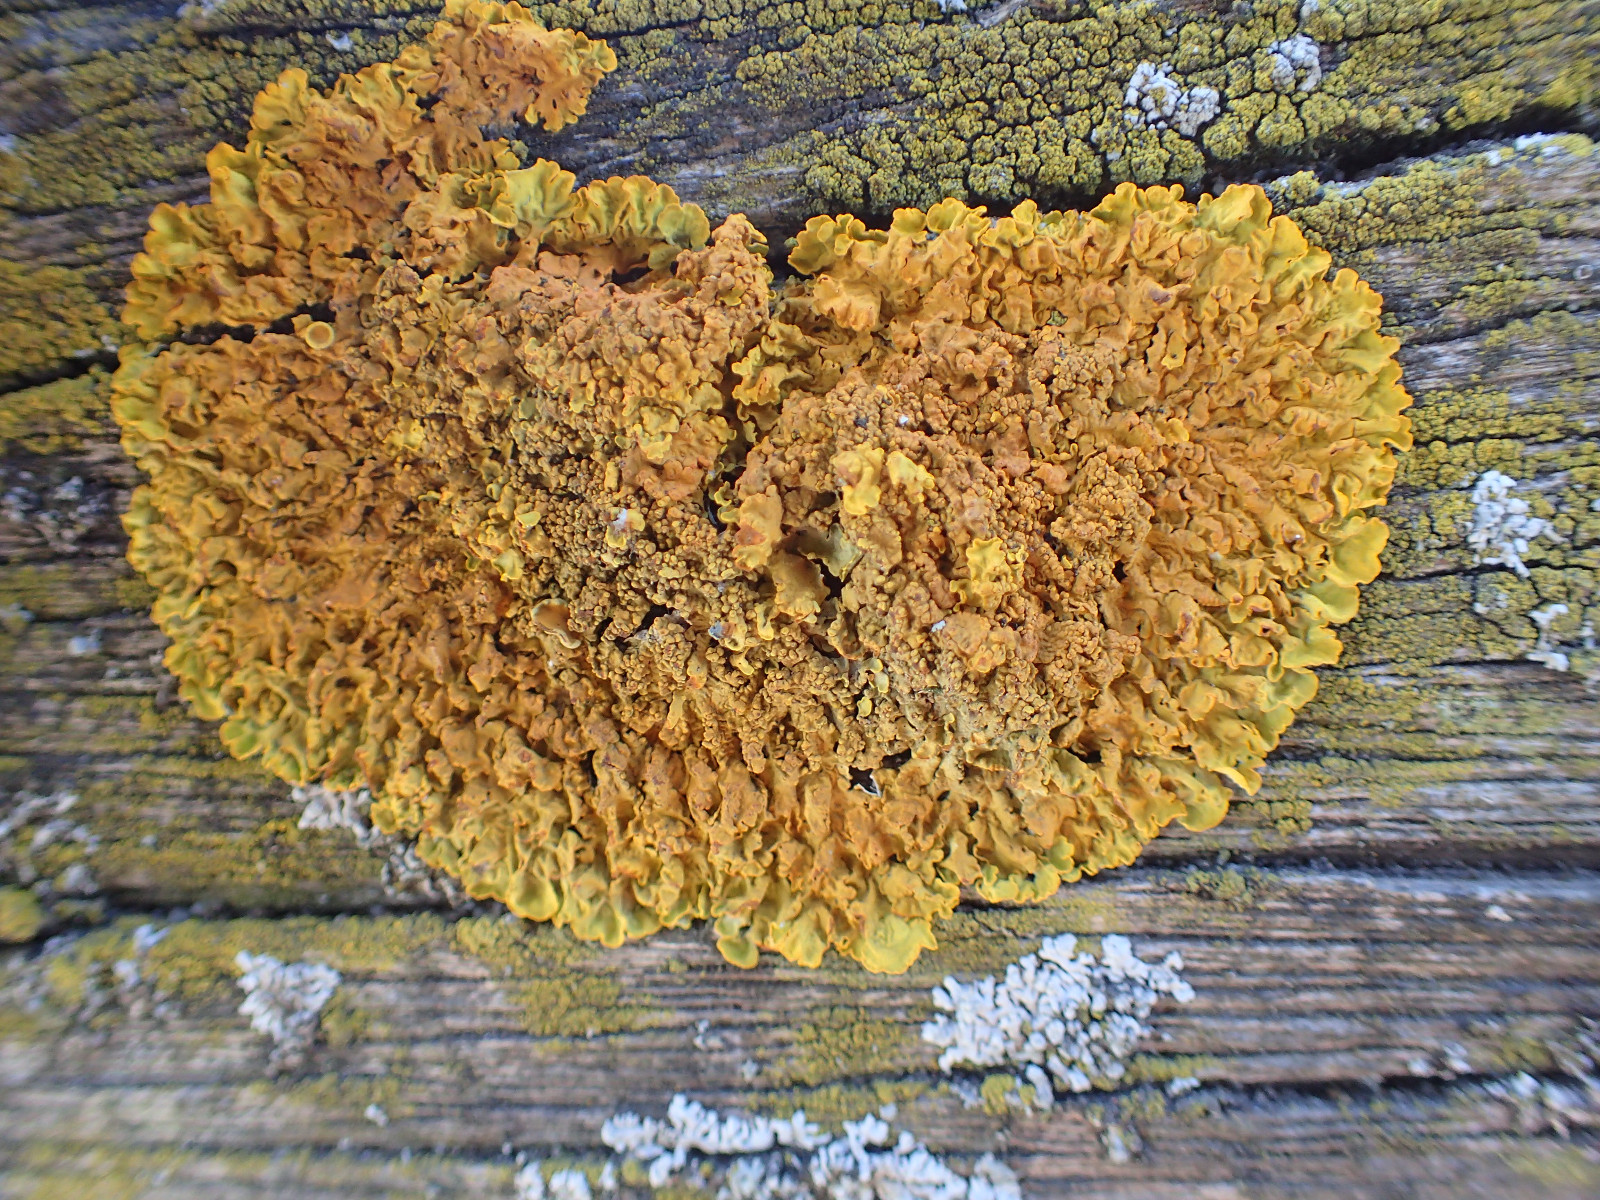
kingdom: Fungi
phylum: Ascomycota
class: Lecanoromycetes
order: Teloschistales
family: Teloschistaceae
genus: Xanthoria
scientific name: Xanthoria calcicola
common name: vortet væggelav
